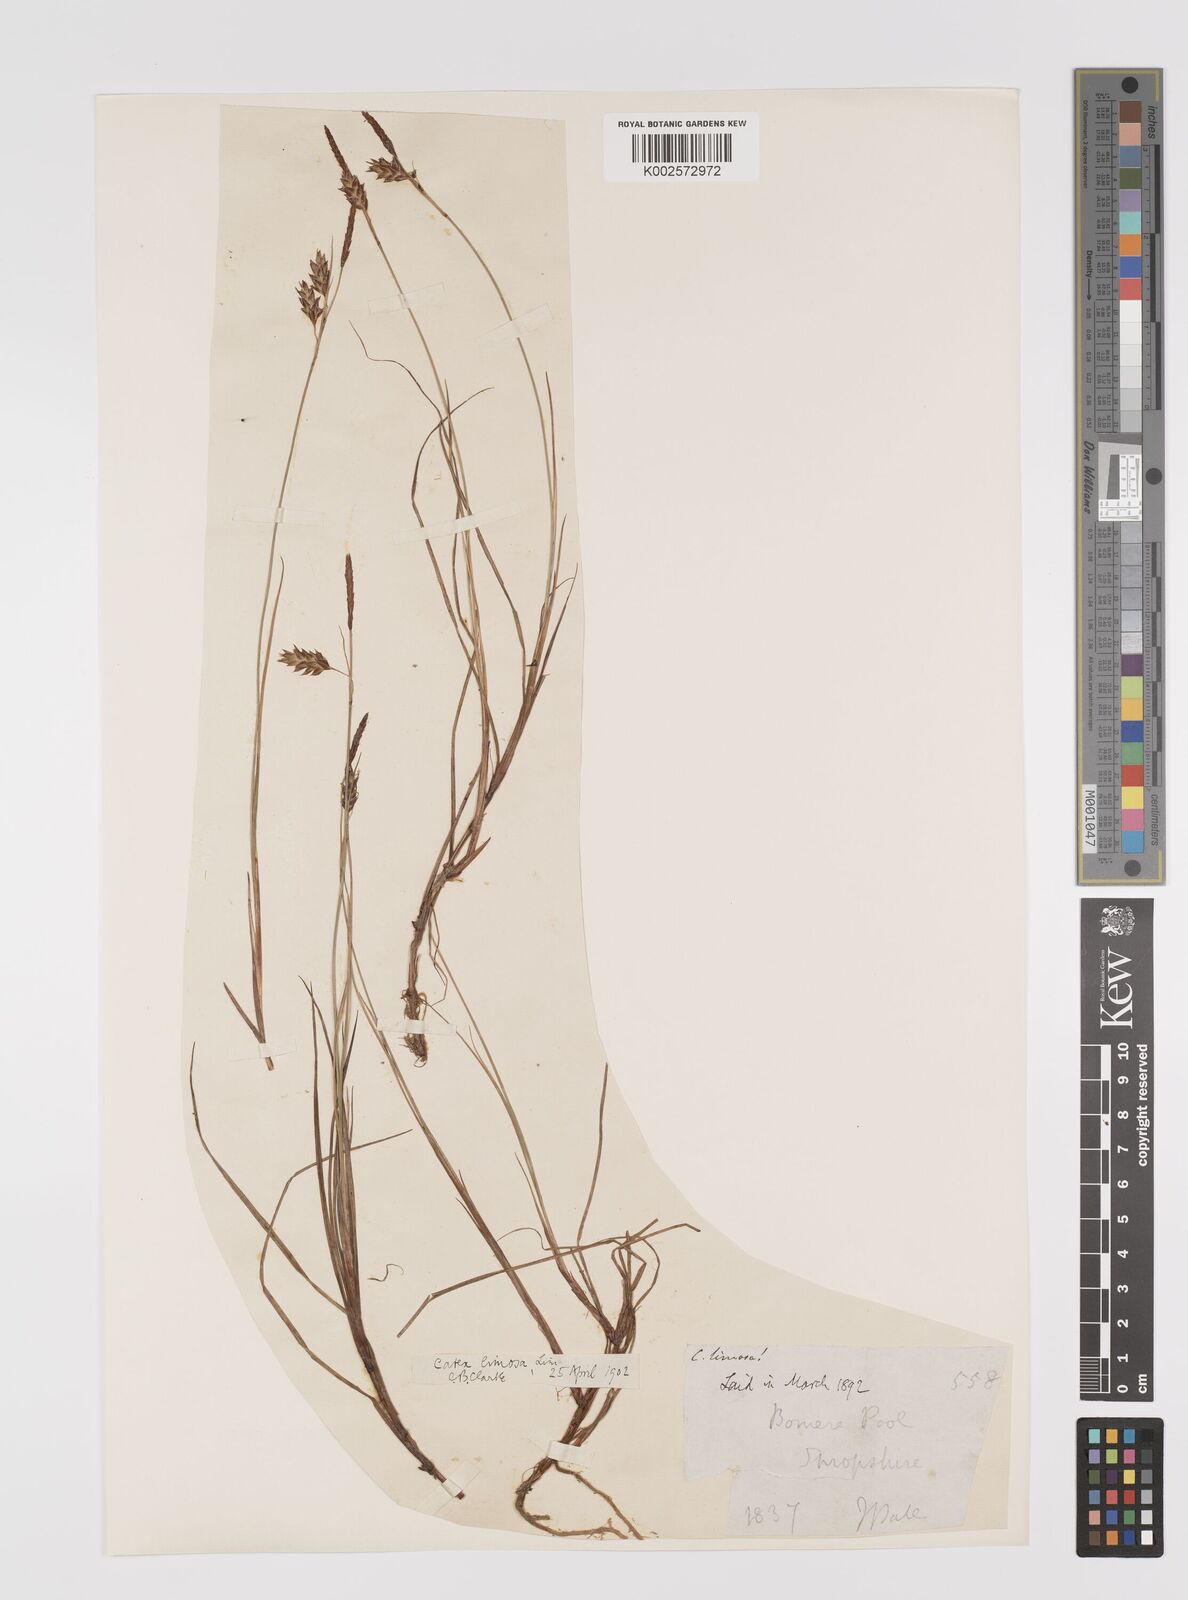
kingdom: Plantae
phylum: Tracheophyta
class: Liliopsida
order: Poales
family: Cyperaceae
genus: Carex
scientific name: Carex limosa
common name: Bog sedge
